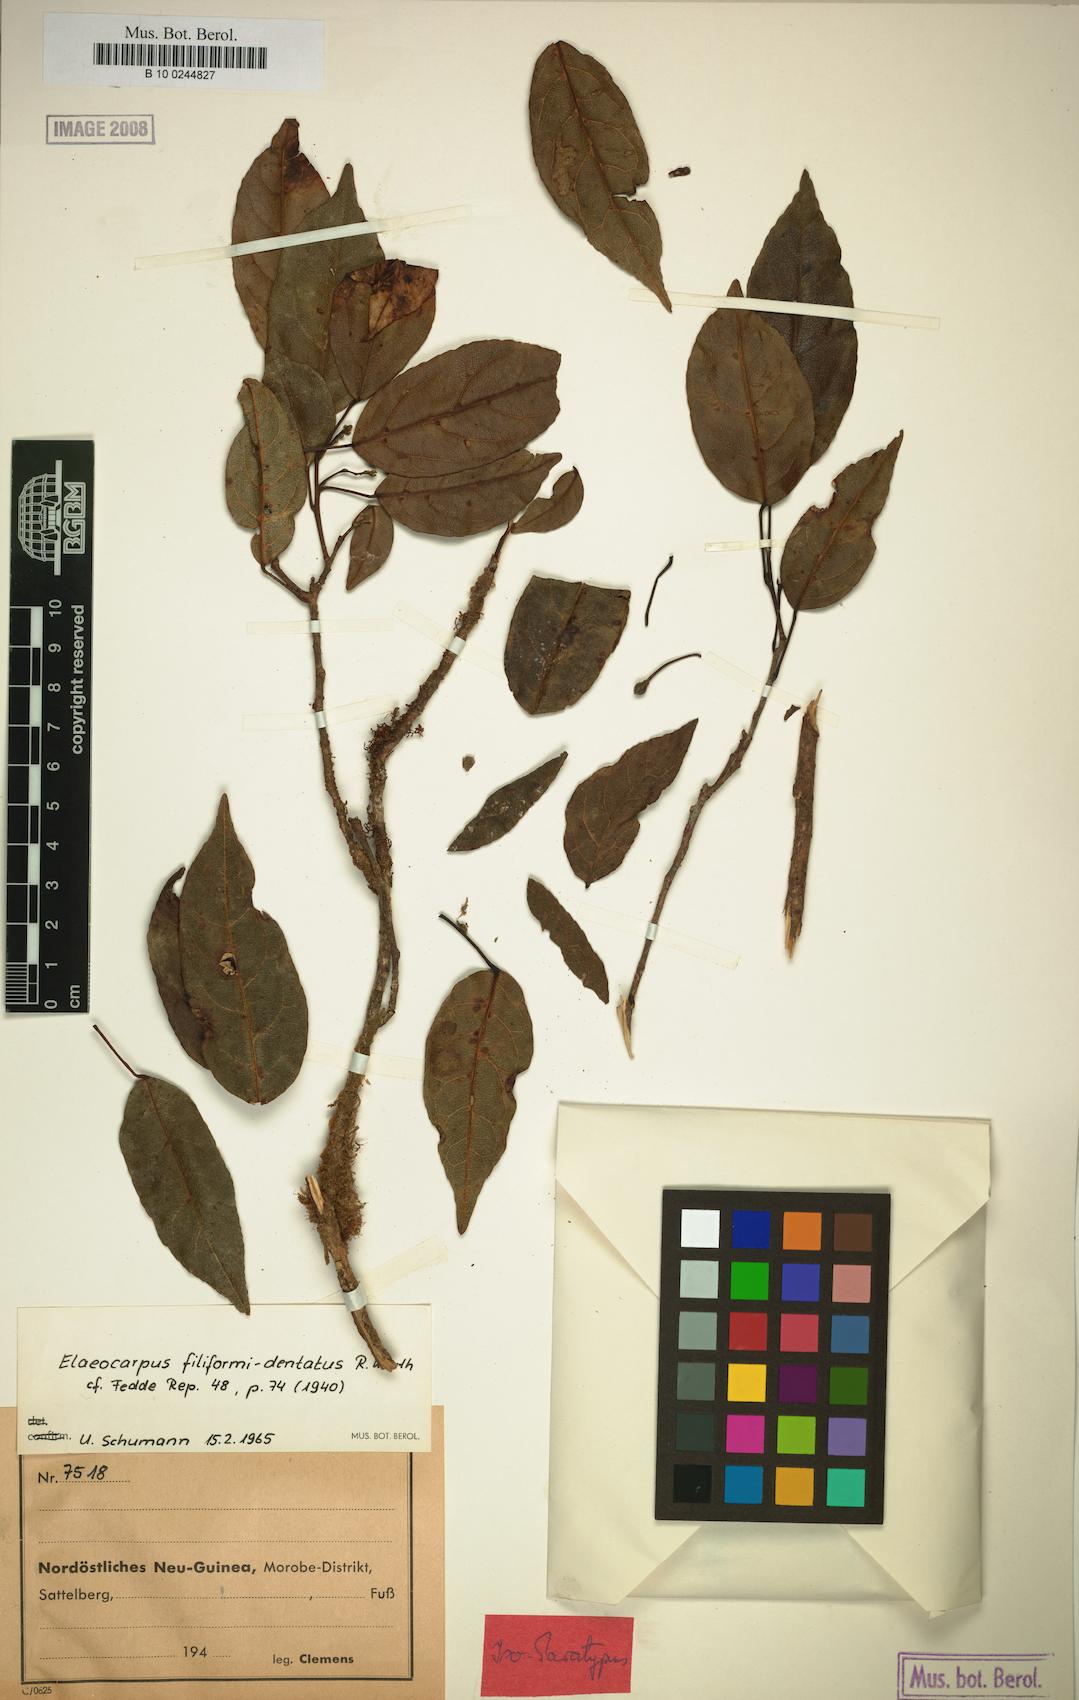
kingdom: Plantae
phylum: Tracheophyta
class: Magnoliopsida
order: Oxalidales
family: Elaeocarpaceae
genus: Elaeocarpus
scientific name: Elaeocarpus filiformidentatus
